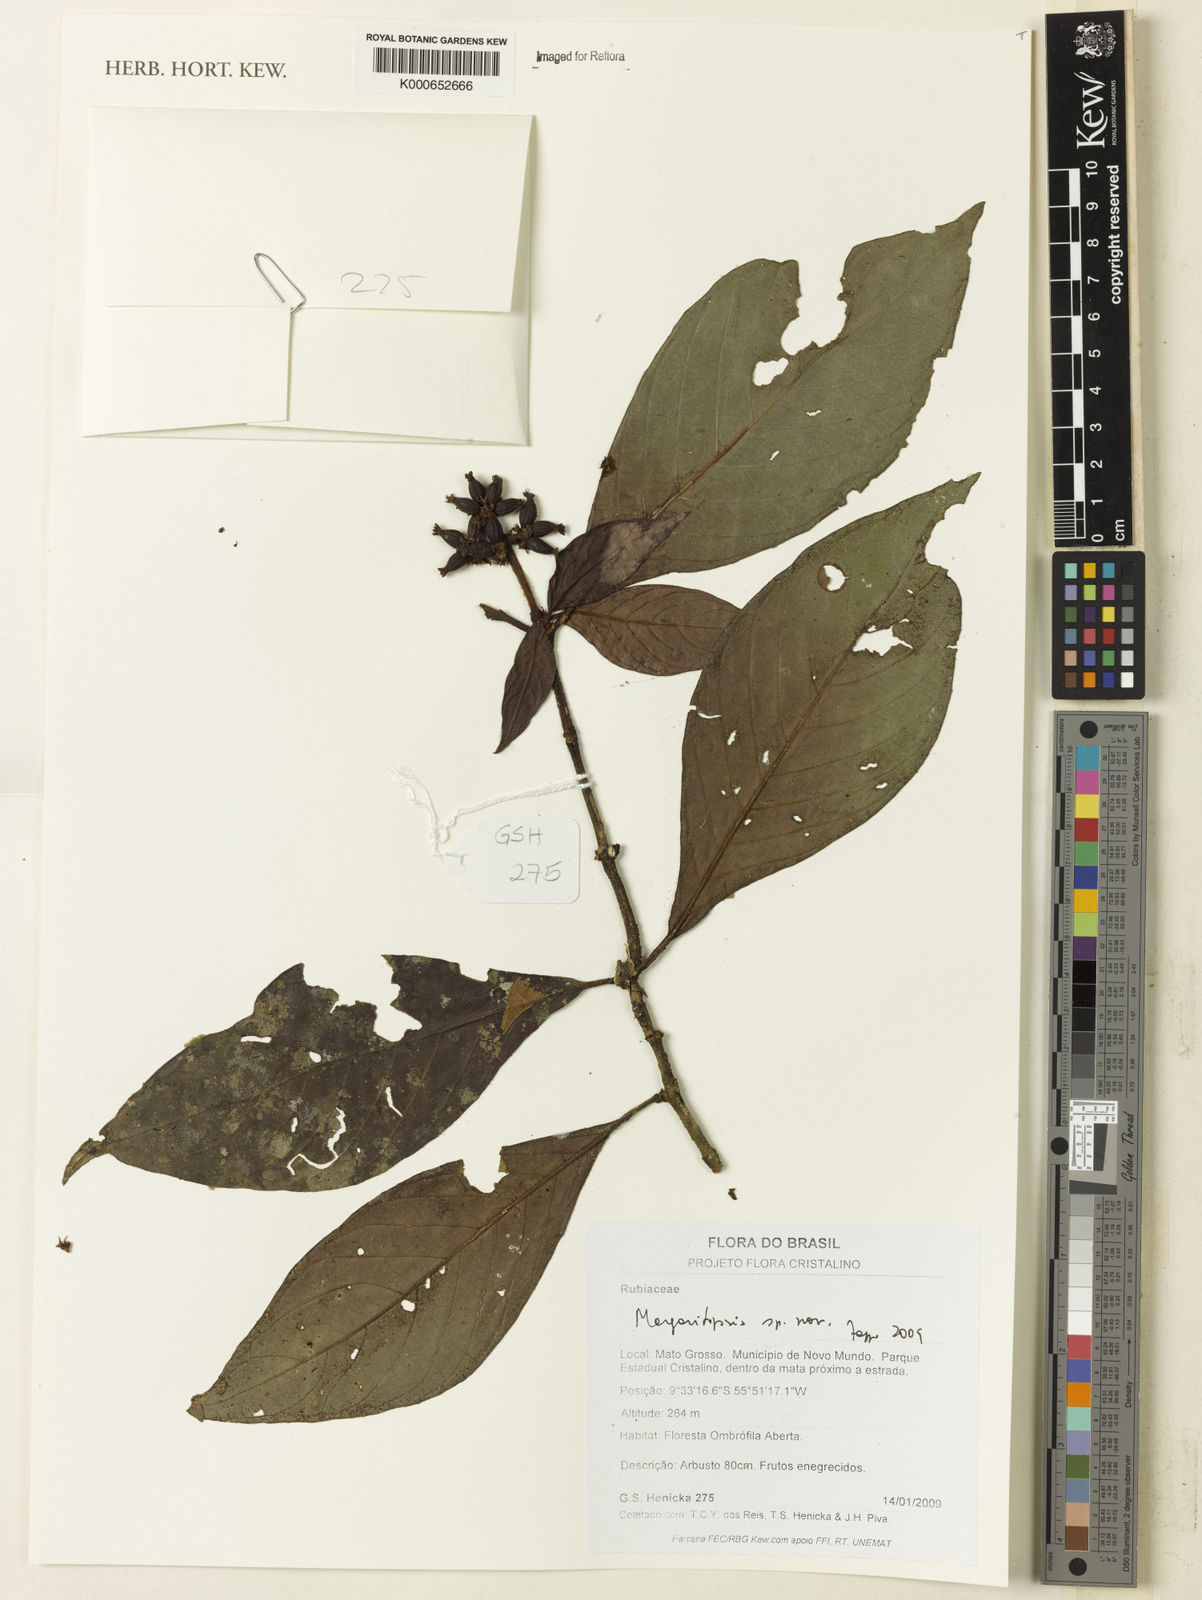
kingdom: Plantae
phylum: Tracheophyta
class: Magnoliopsida
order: Gentianales
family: Rubiaceae
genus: Eumachia
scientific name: Eumachia
